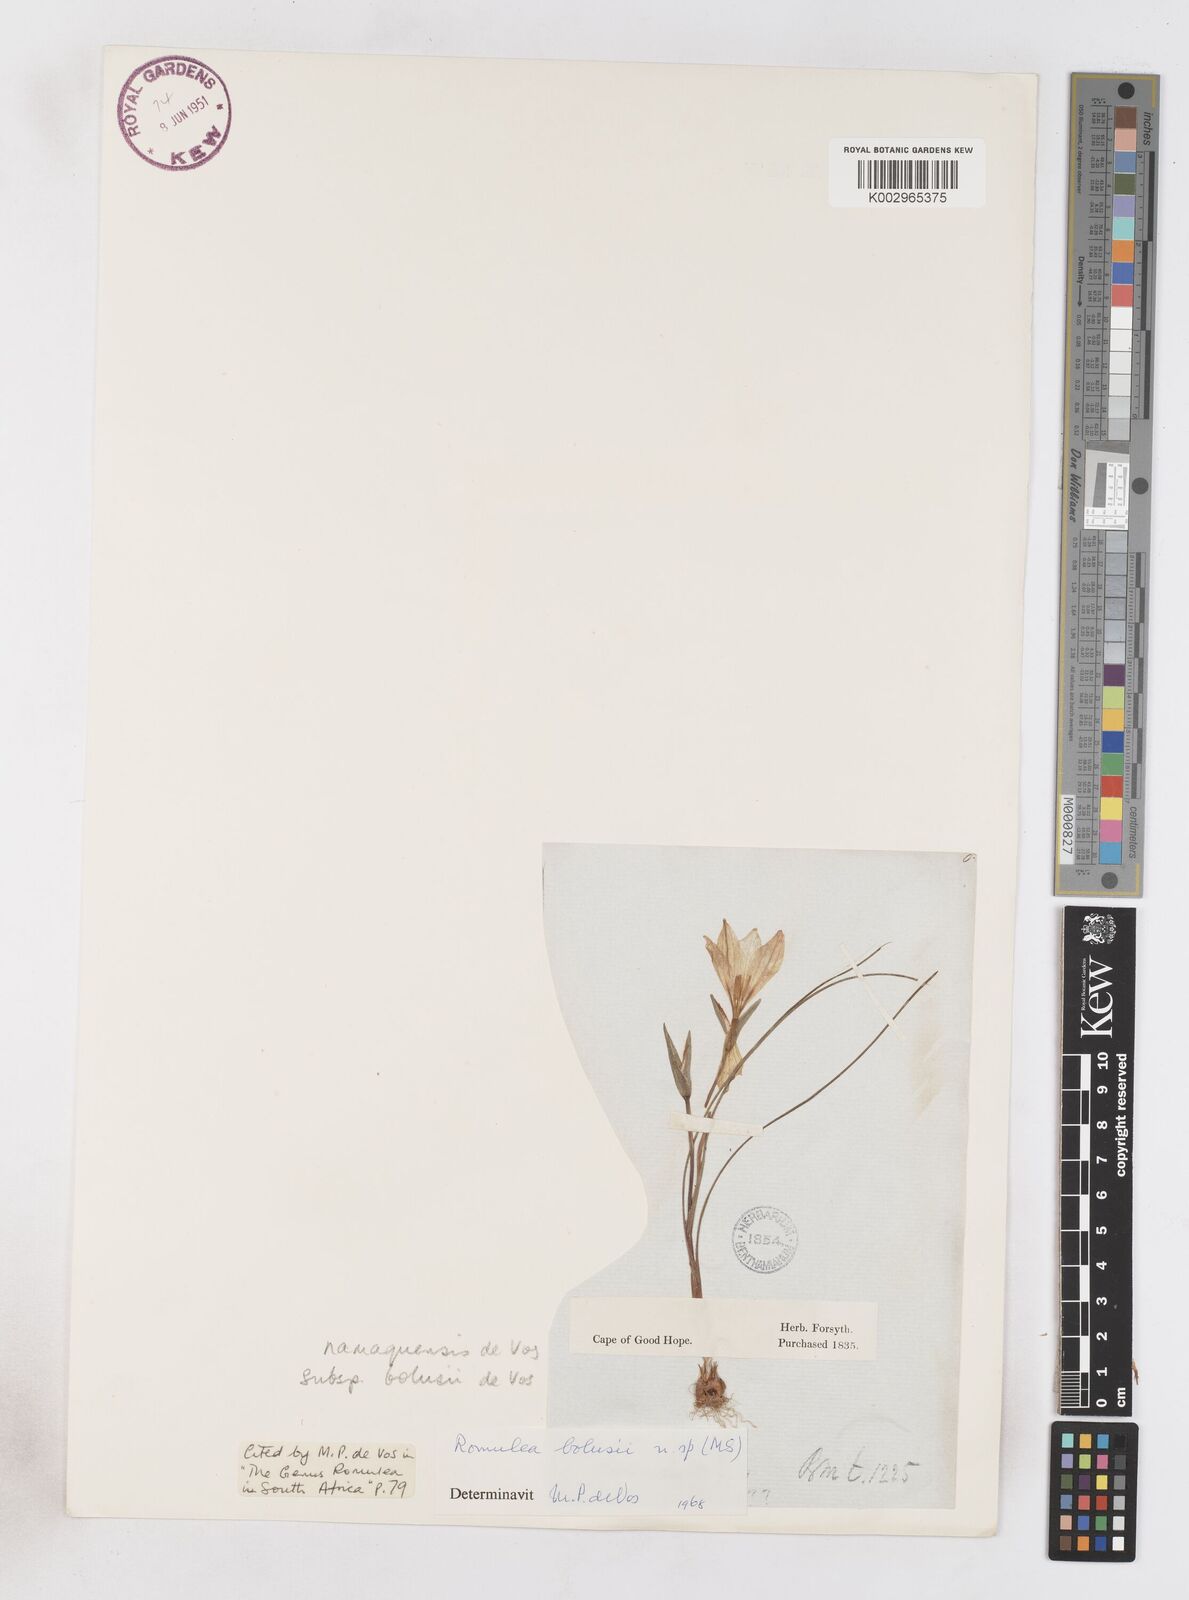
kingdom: Plantae
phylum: Tracheophyta
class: Liliopsida
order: Asparagales
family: Iridaceae
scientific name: Iridaceae
